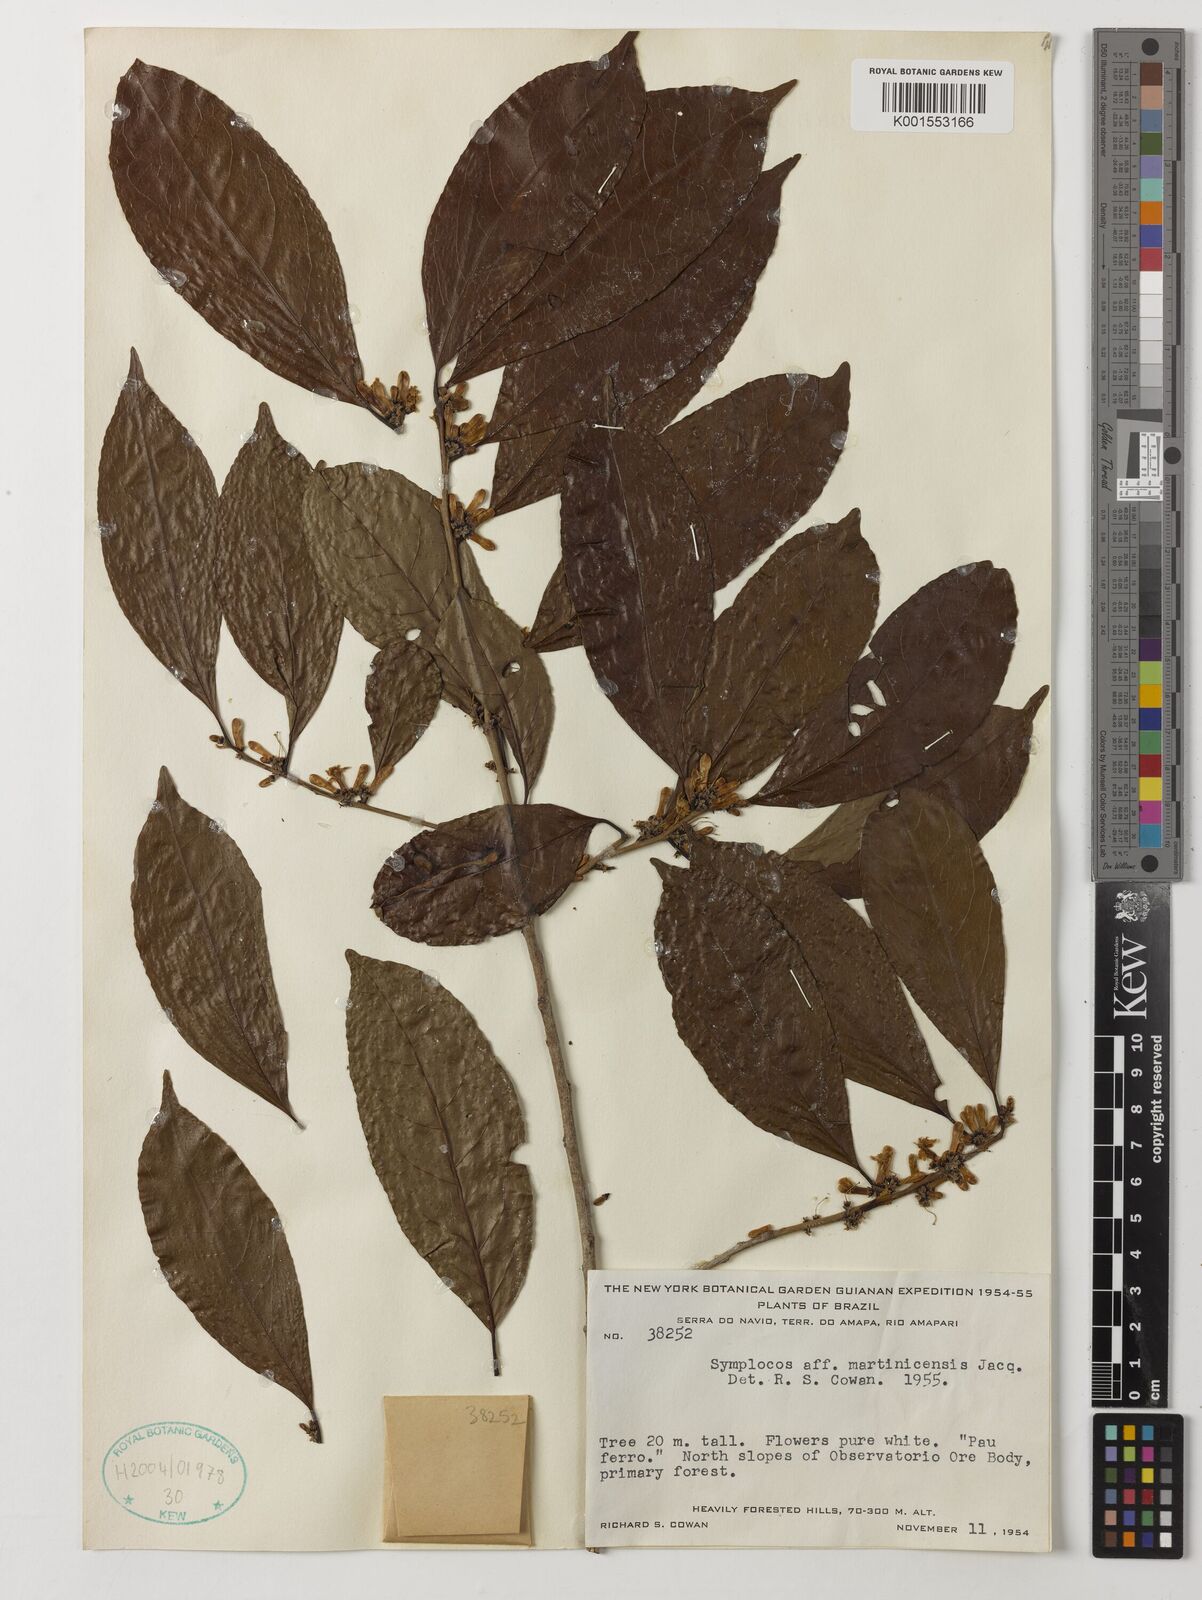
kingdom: Plantae
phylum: Tracheophyta
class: Magnoliopsida
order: Ericales
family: Symplocaceae
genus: Symplocos
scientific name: Symplocos martinicensis
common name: Blueberry
